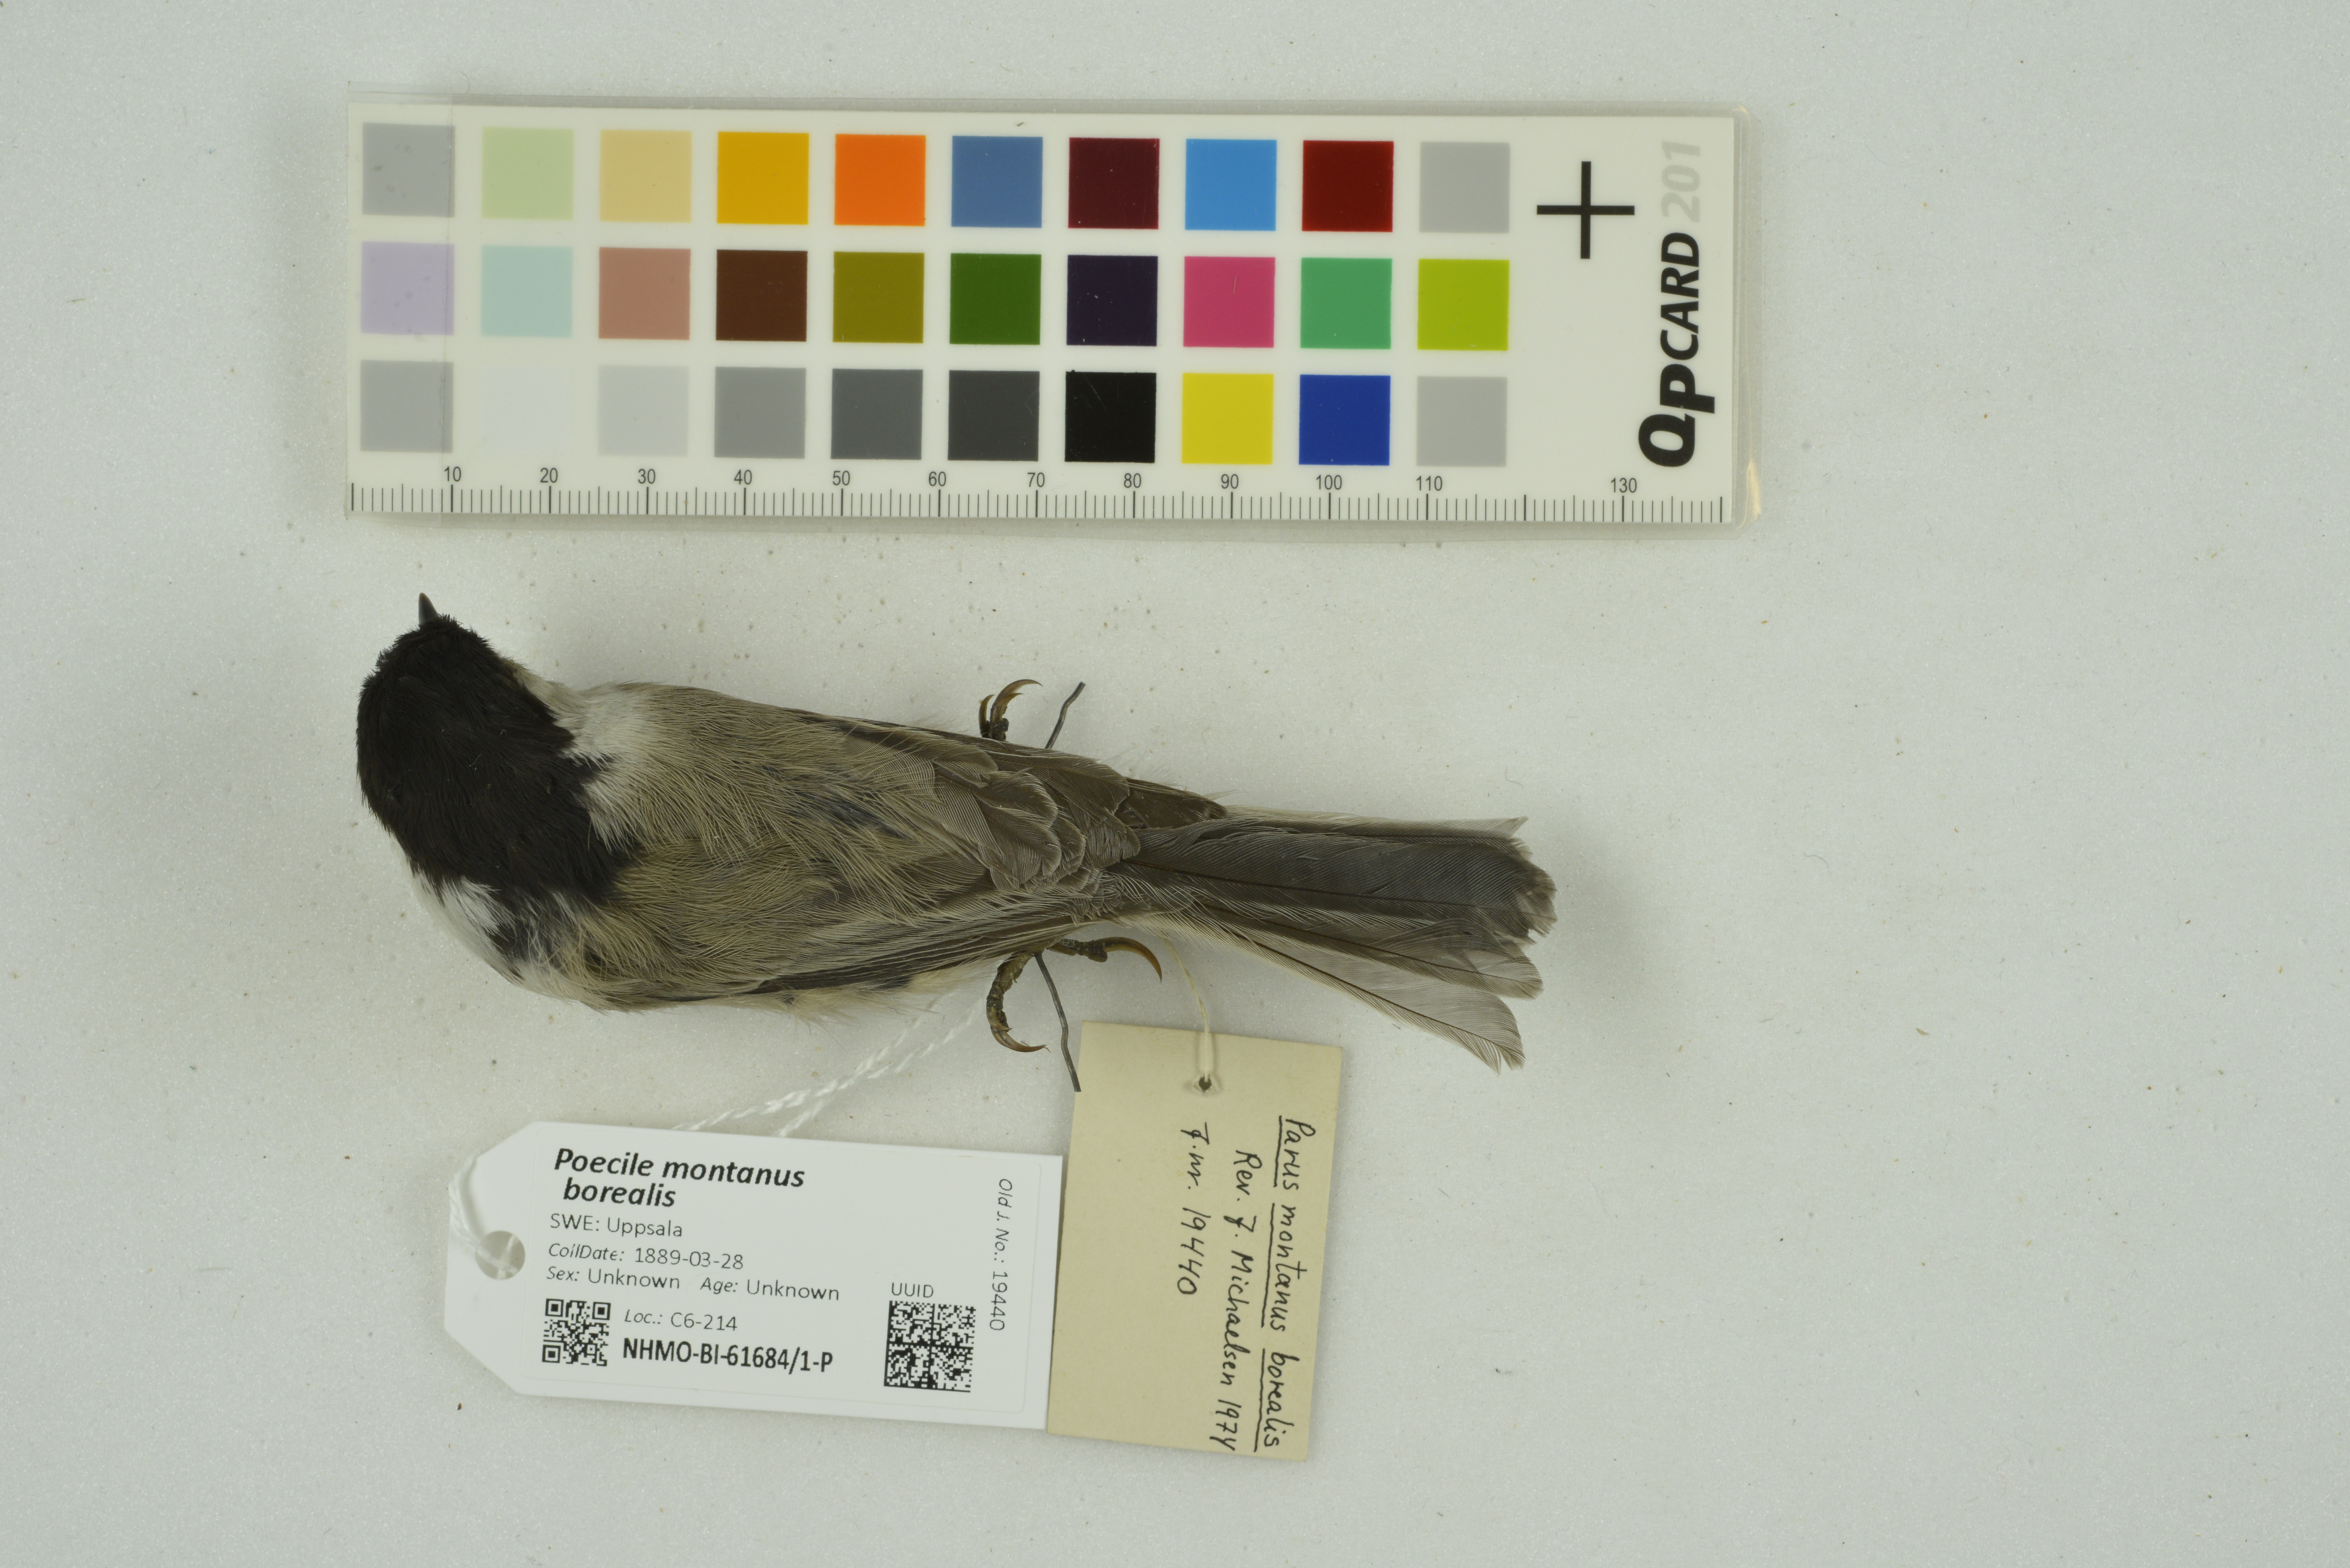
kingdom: Animalia
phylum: Chordata
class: Aves
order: Passeriformes
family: Paridae
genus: Poecile
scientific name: Poecile montanus
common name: Willow tit
